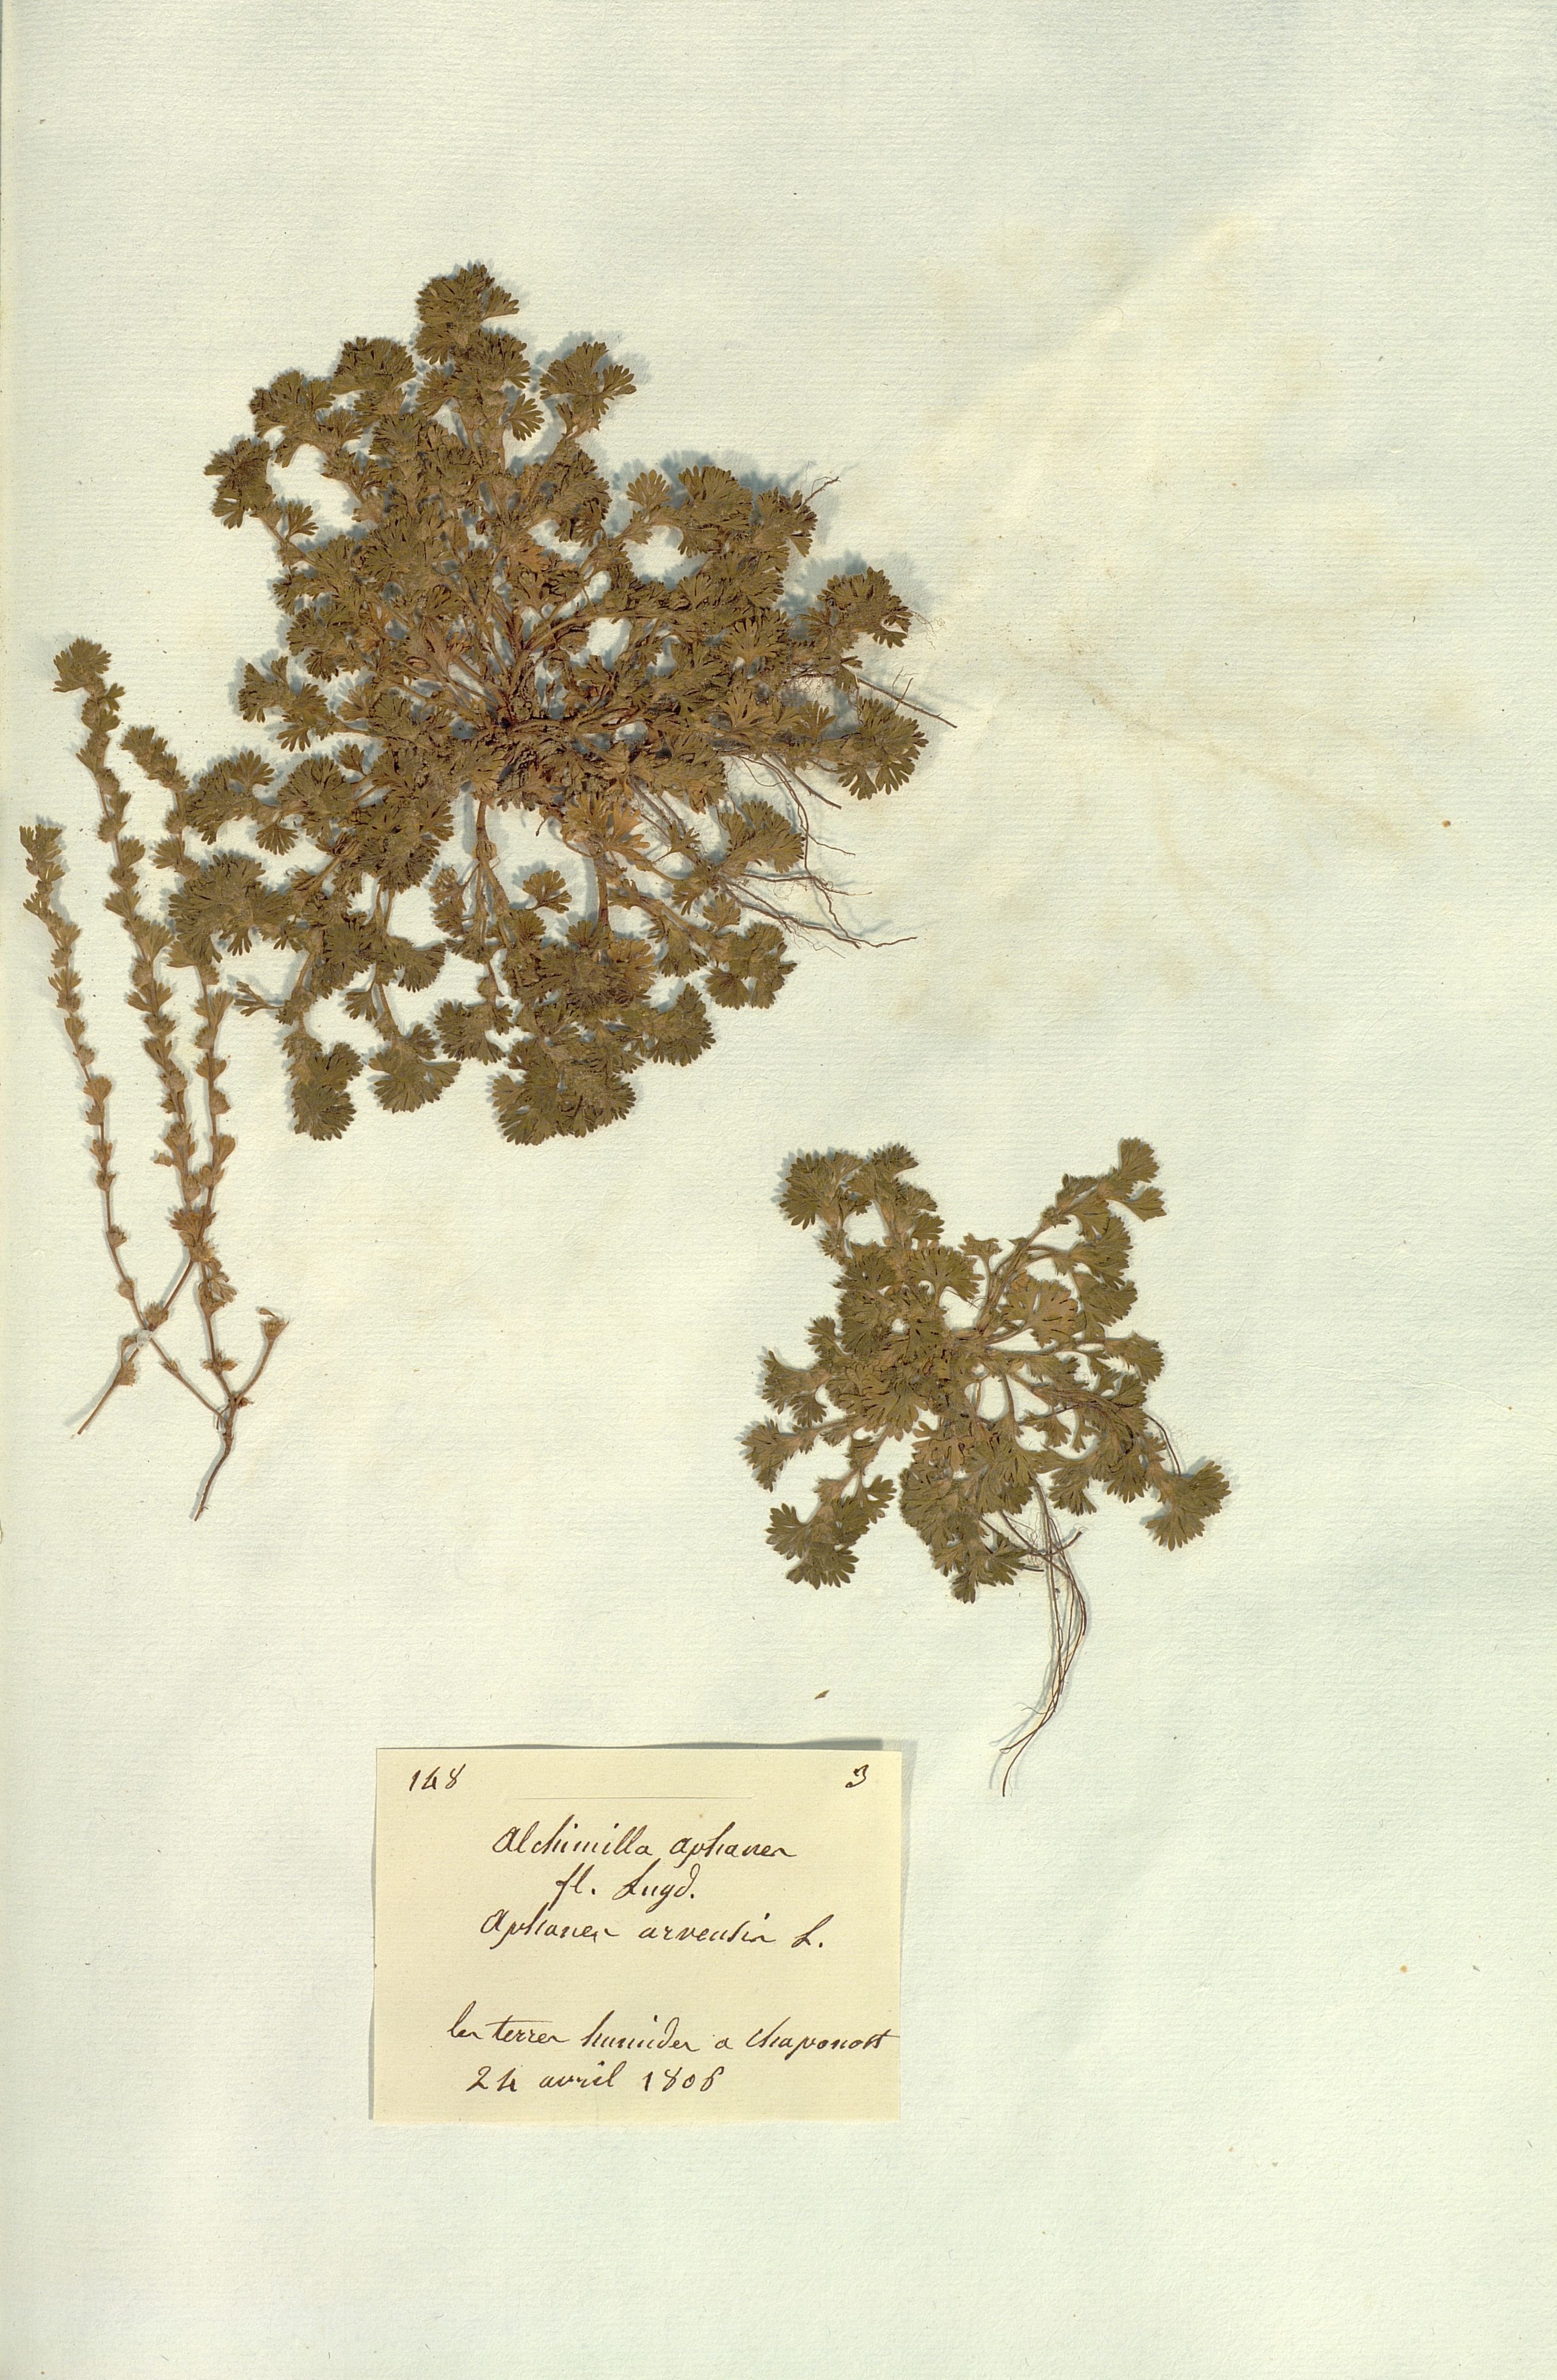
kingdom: Plantae
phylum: Tracheophyta
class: Magnoliopsida
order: Rosales
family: Rosaceae
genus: Aphanes
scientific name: Aphanes arvensis
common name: Parsley-piert
